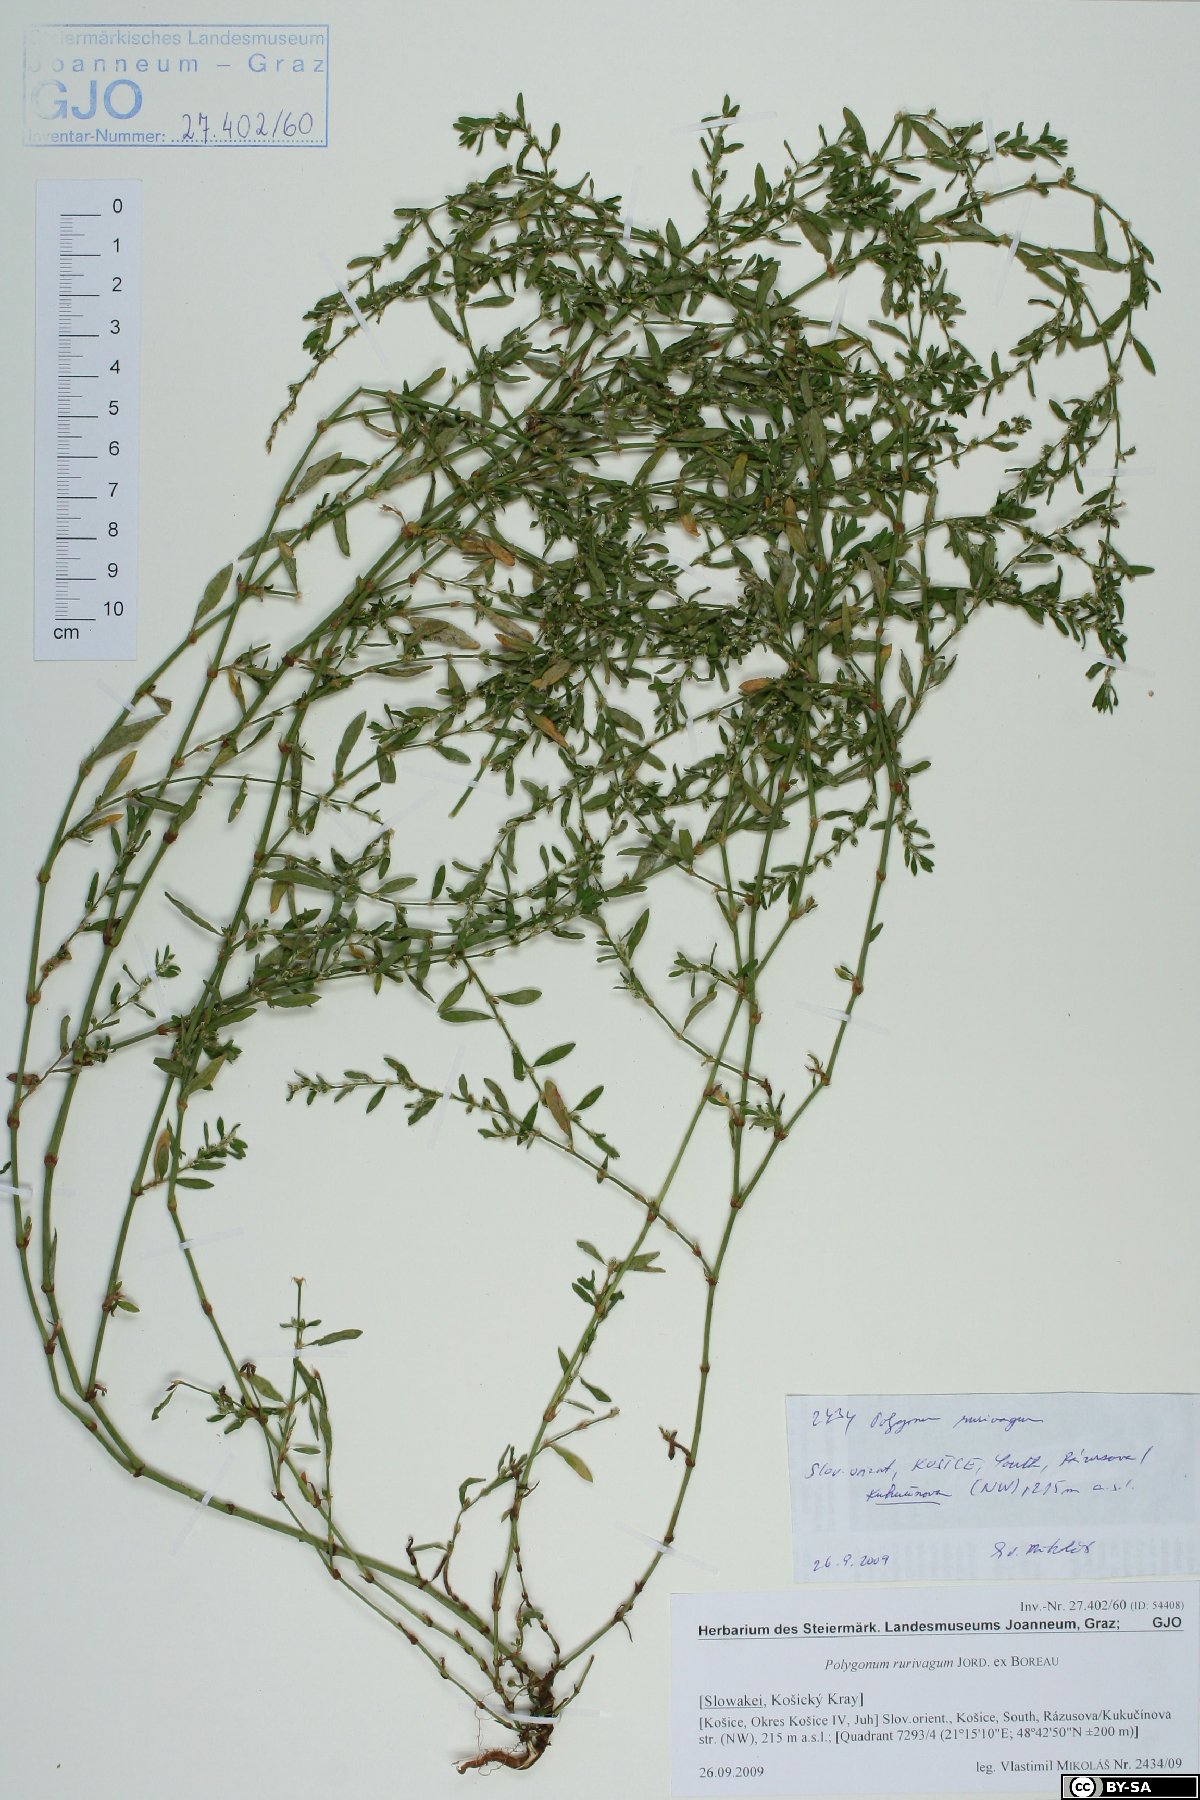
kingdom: Plantae
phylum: Tracheophyta
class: Magnoliopsida
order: Caryophyllales
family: Polygonaceae
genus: Polygonum
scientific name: Polygonum aviculare
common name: Prostrate knotweed
